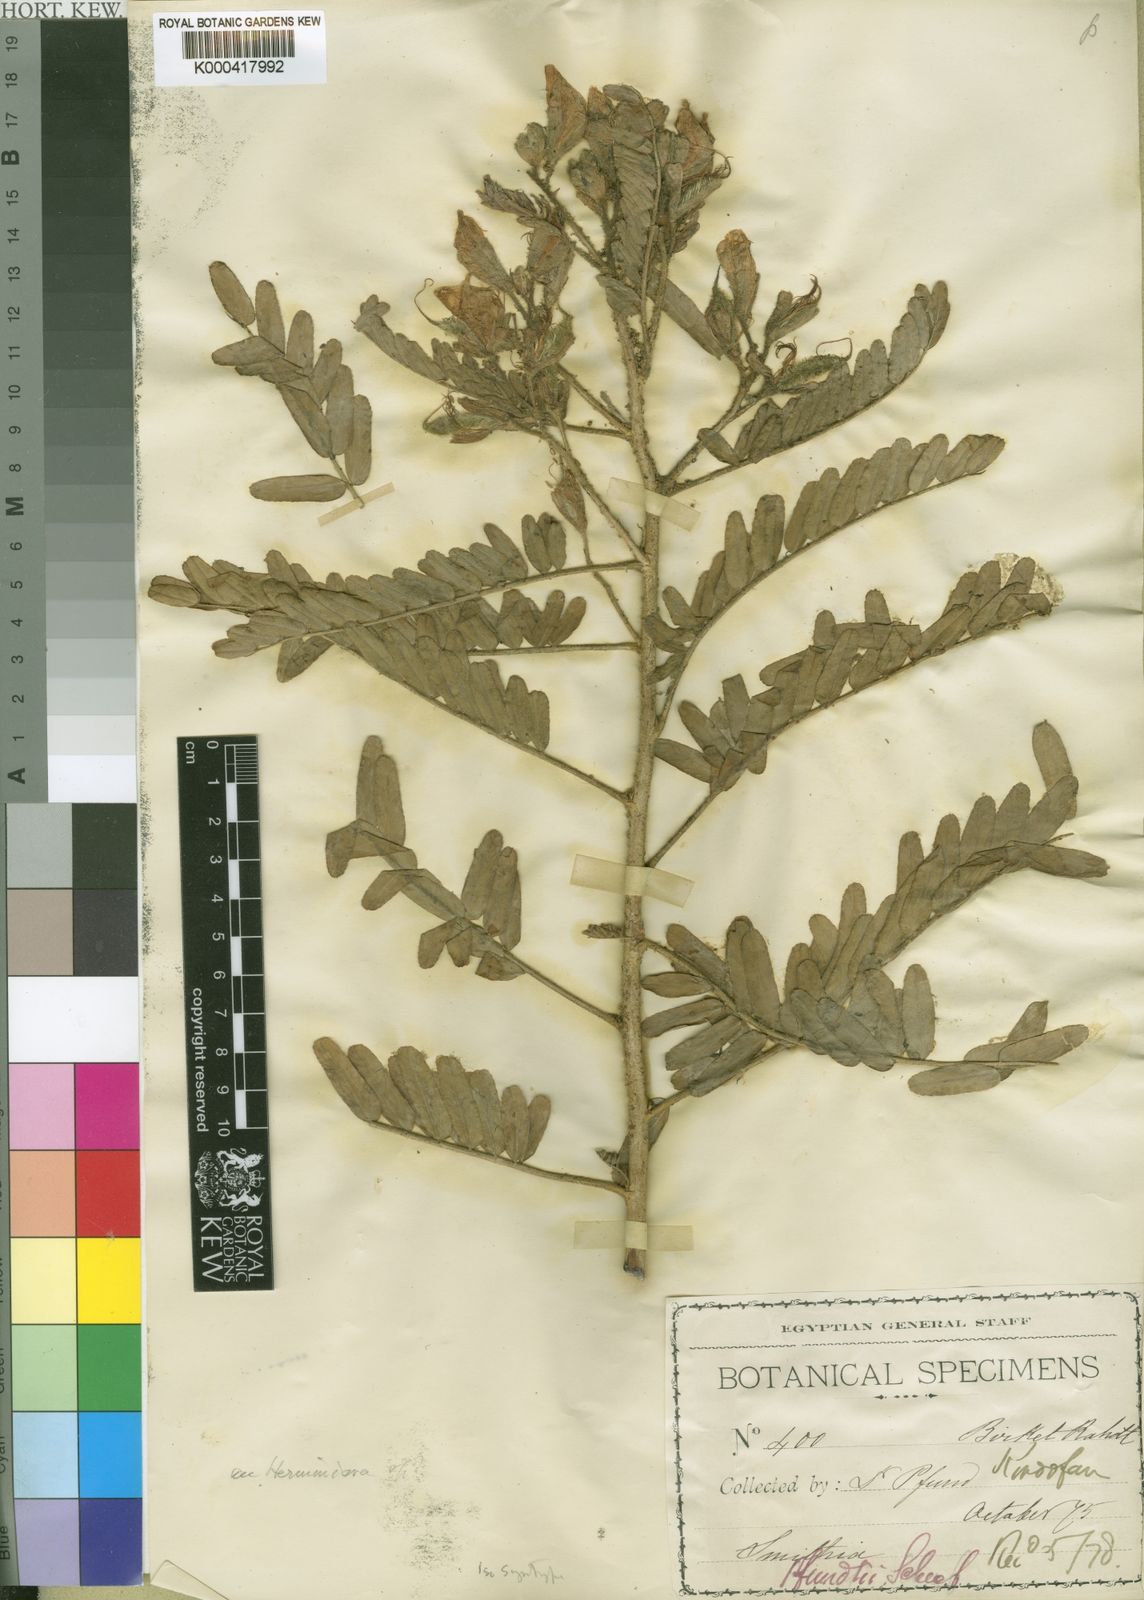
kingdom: Plantae
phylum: Tracheophyta
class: Magnoliopsida
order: Fabales
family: Fabaceae
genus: Aeschynomene
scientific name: Aeschynomene pfundii
